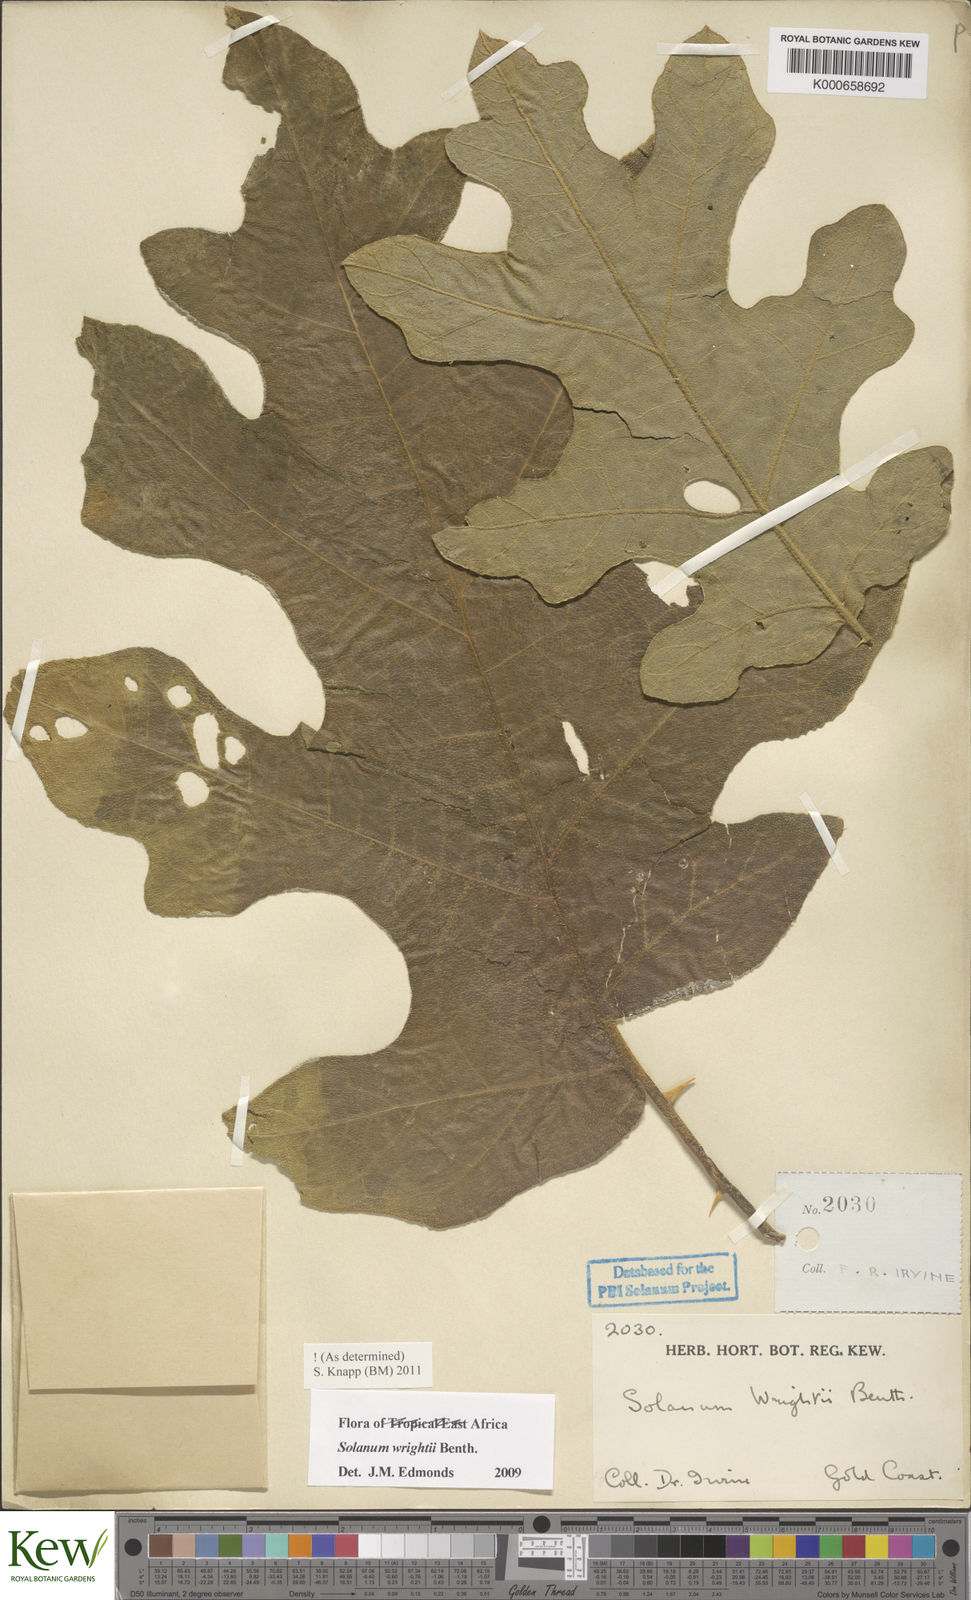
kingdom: Plantae
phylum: Tracheophyta
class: Magnoliopsida
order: Solanales
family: Solanaceae
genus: Solanum
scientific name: Solanum wrightii
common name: Brazilian potato-tree
